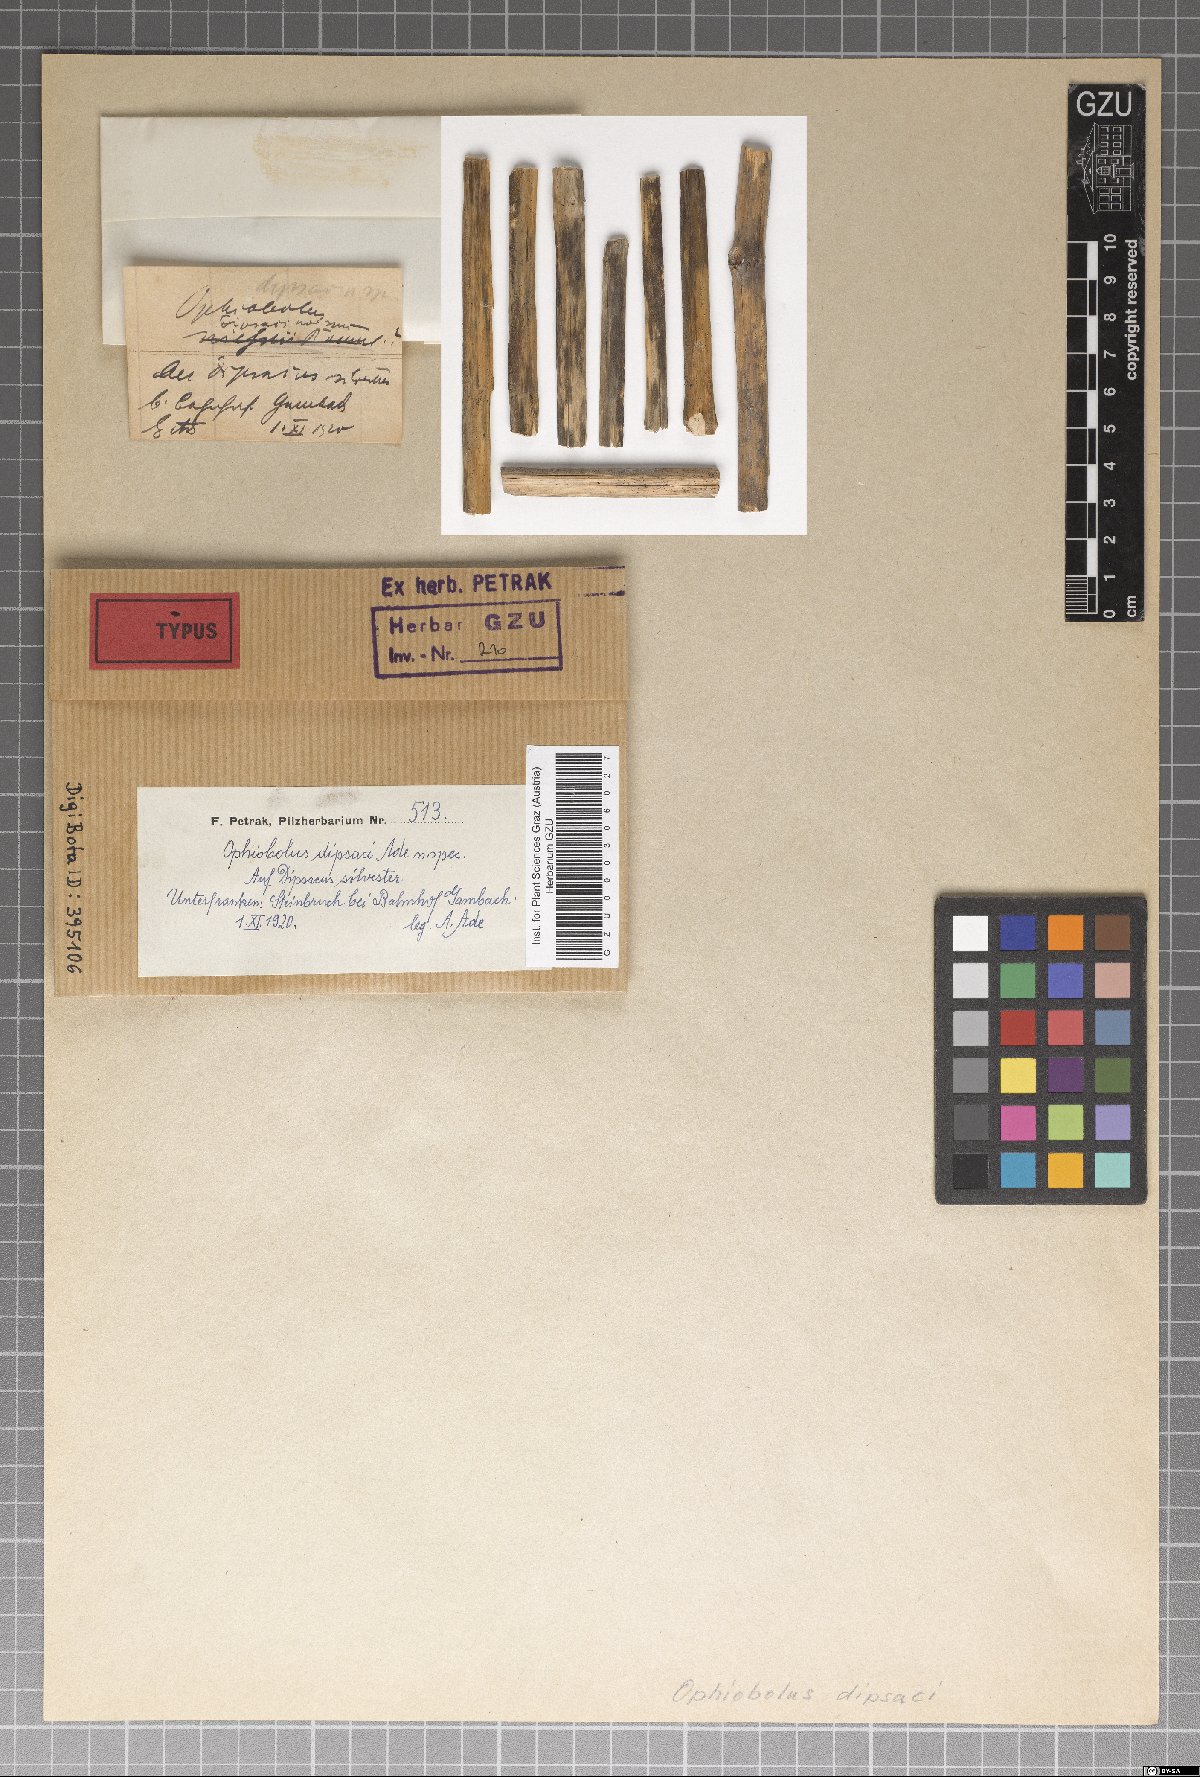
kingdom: Fungi
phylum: Ascomycota
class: Dothideomycetes
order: Pleosporales
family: Phaeosphaeriaceae
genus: Ophiobolus
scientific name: Ophiobolus dipsaci
